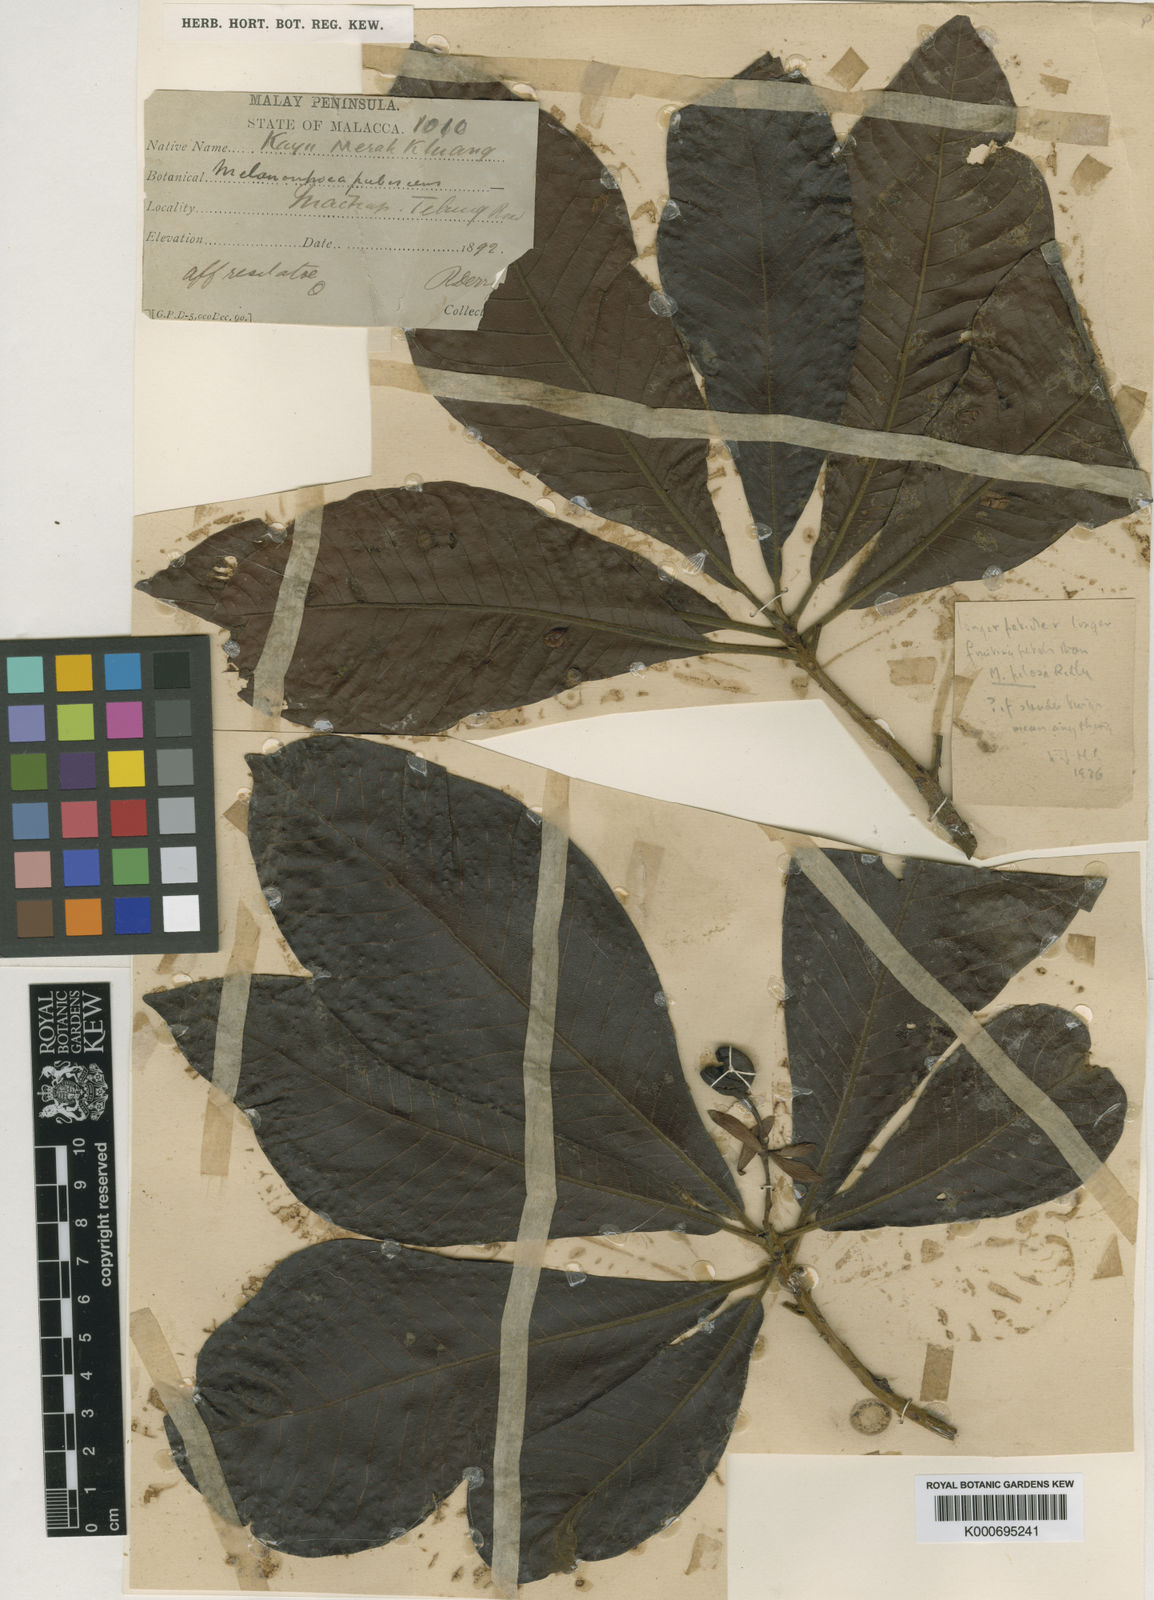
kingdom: Plantae
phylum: Tracheophyta
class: Magnoliopsida
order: Sapindales
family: Anacardiaceae
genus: Gluta
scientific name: Gluta pubescens
